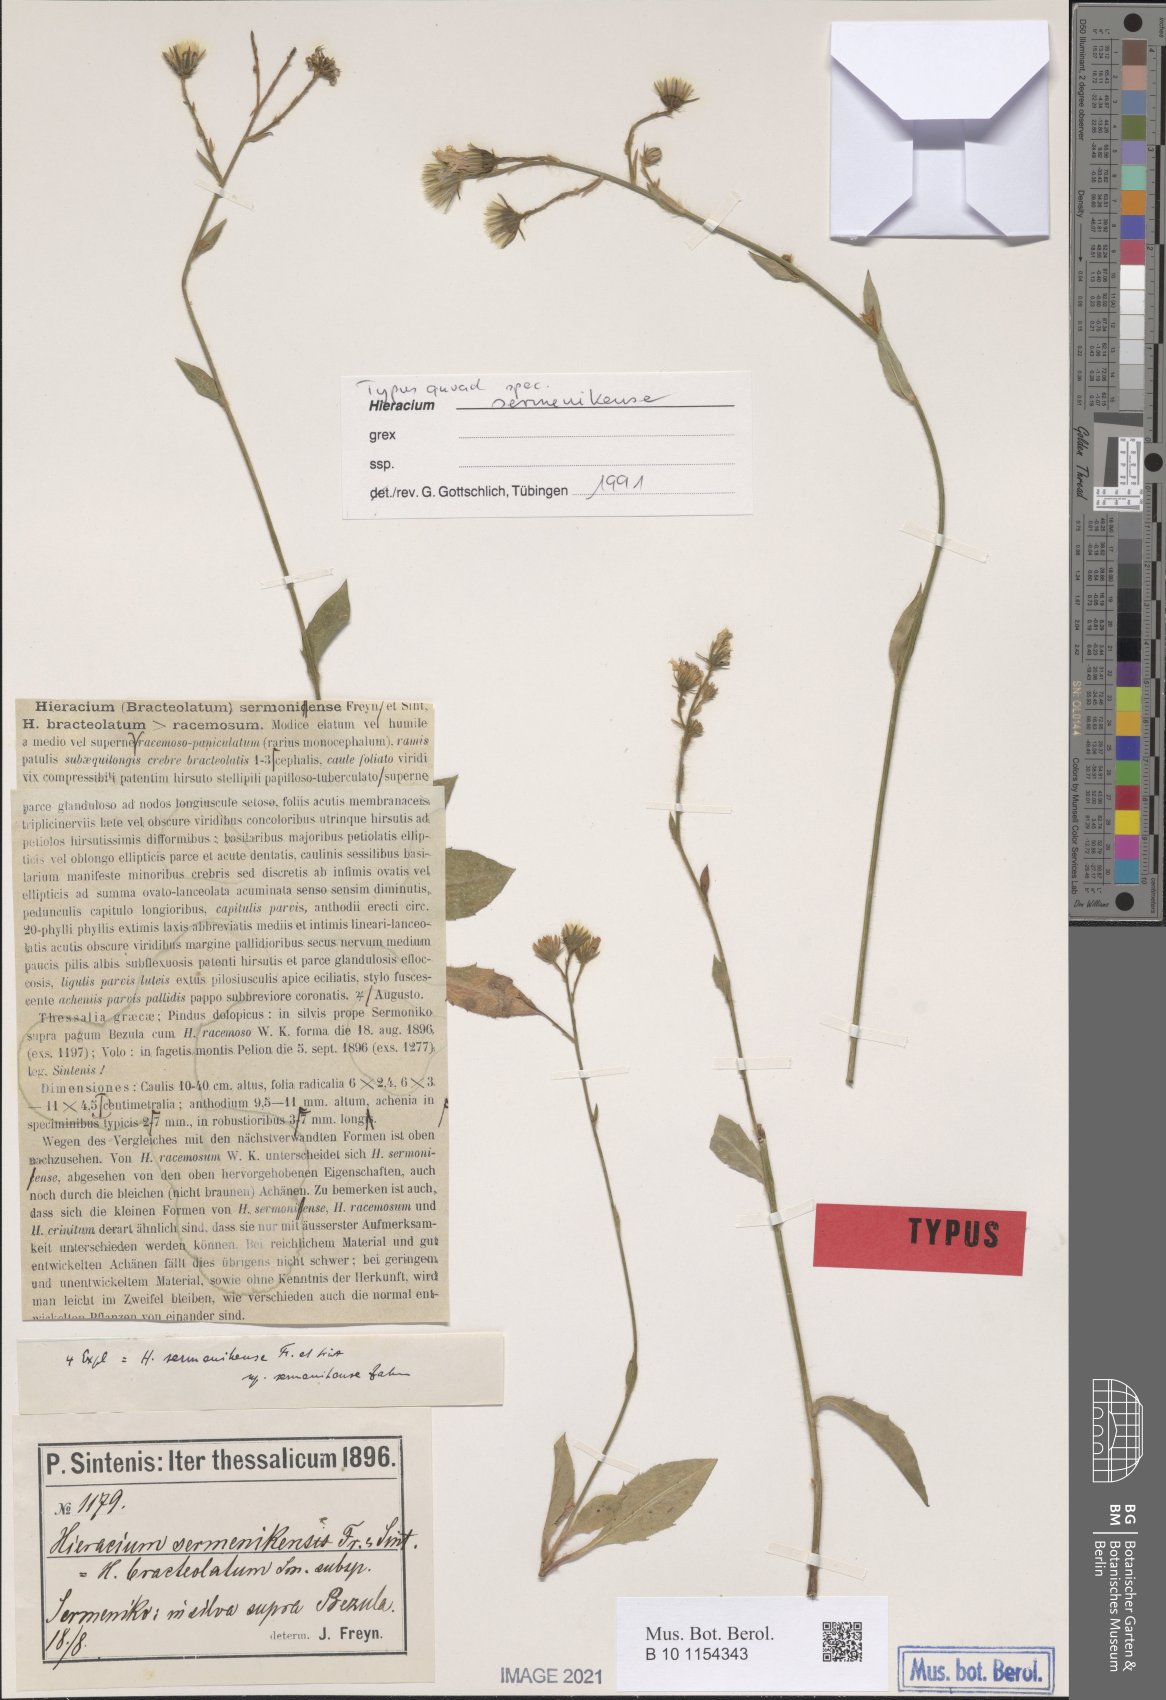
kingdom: Plantae
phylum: Tracheophyta
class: Magnoliopsida
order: Asterales
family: Asteraceae
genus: Hieracium
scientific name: Hieracium sermenikense
